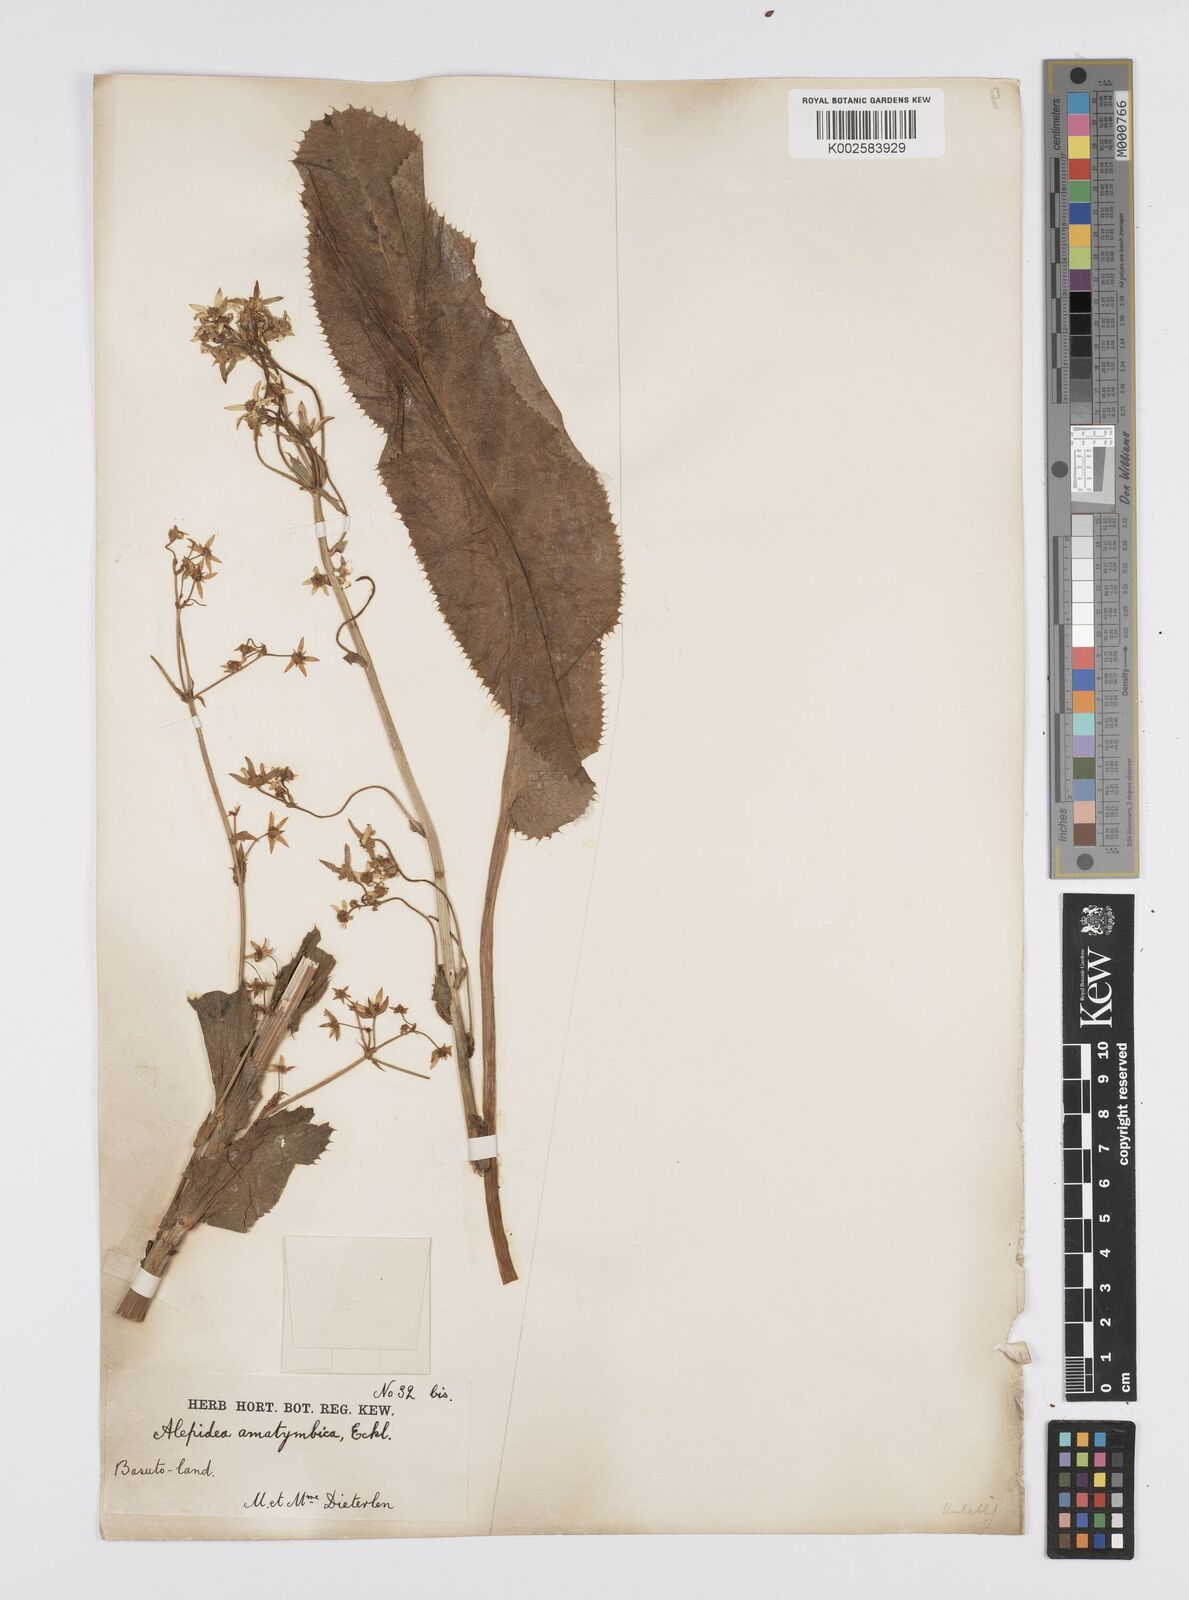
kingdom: Plantae
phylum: Tracheophyta
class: Magnoliopsida
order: Apiales
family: Apiaceae
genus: Alepidea
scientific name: Alepidea amatymbica
